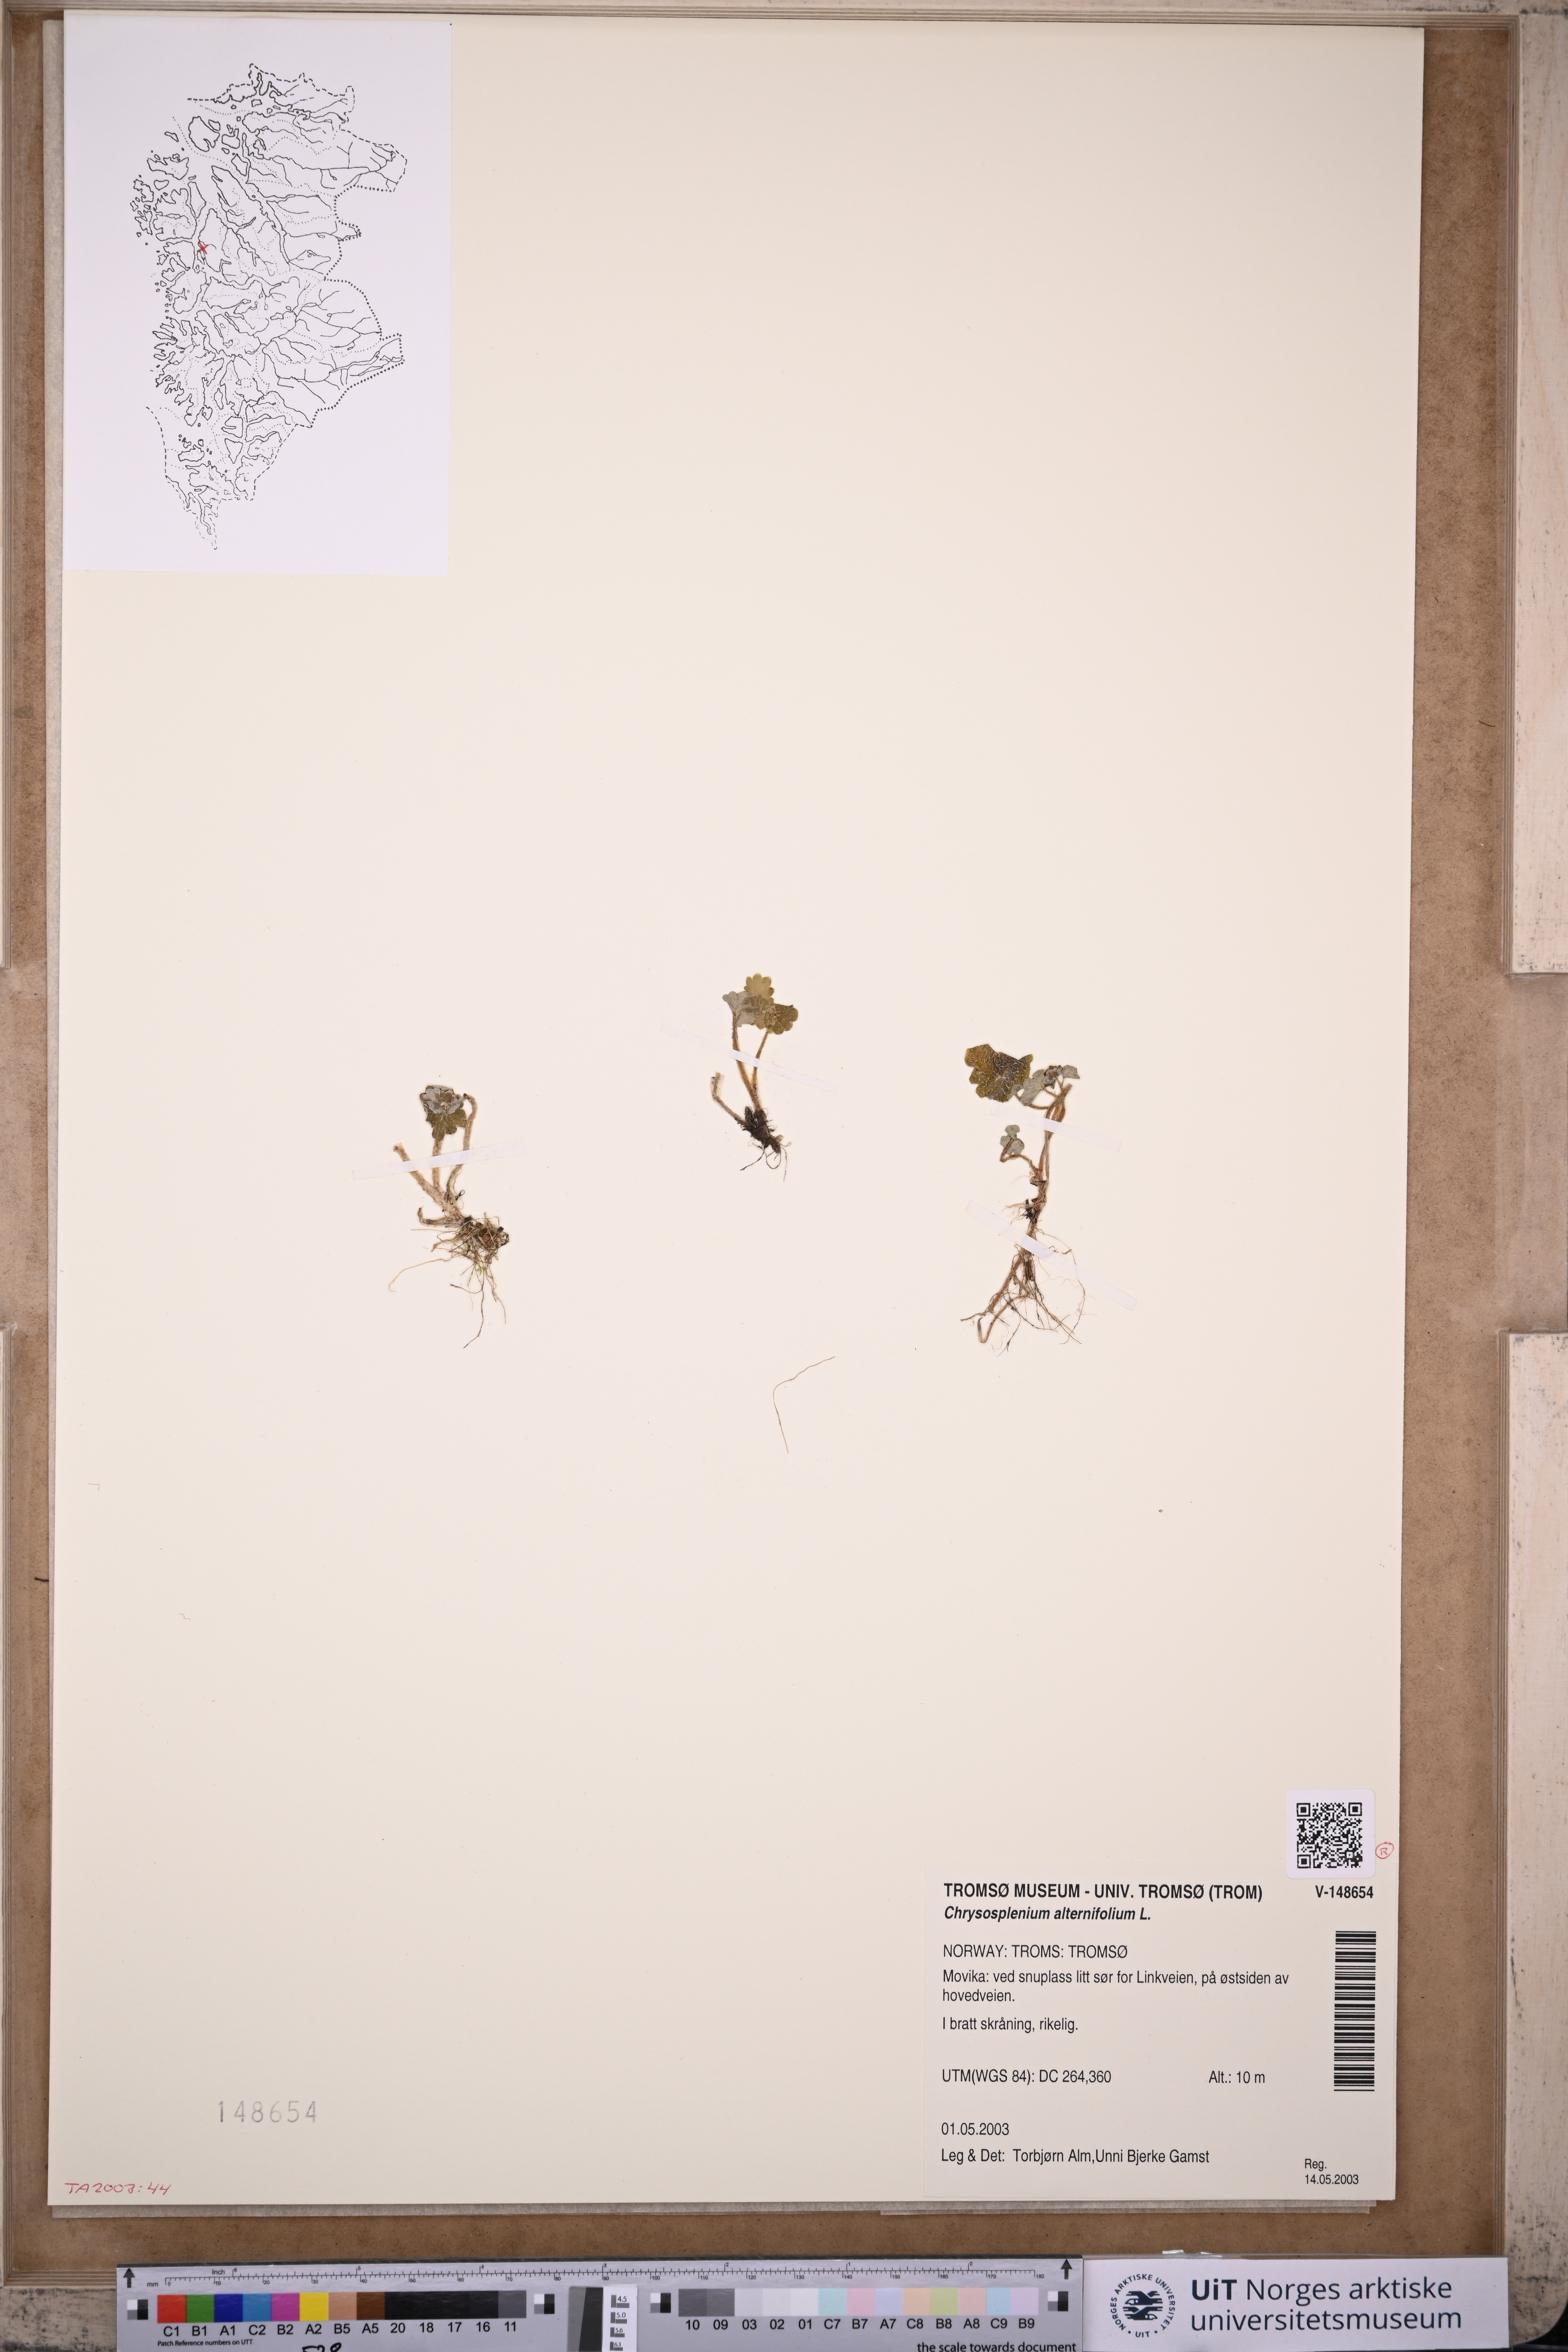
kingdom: Plantae
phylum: Tracheophyta
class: Magnoliopsida
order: Saxifragales
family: Saxifragaceae
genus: Chrysosplenium
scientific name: Chrysosplenium alternifolium
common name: Alternate-leaved golden-saxifrage
